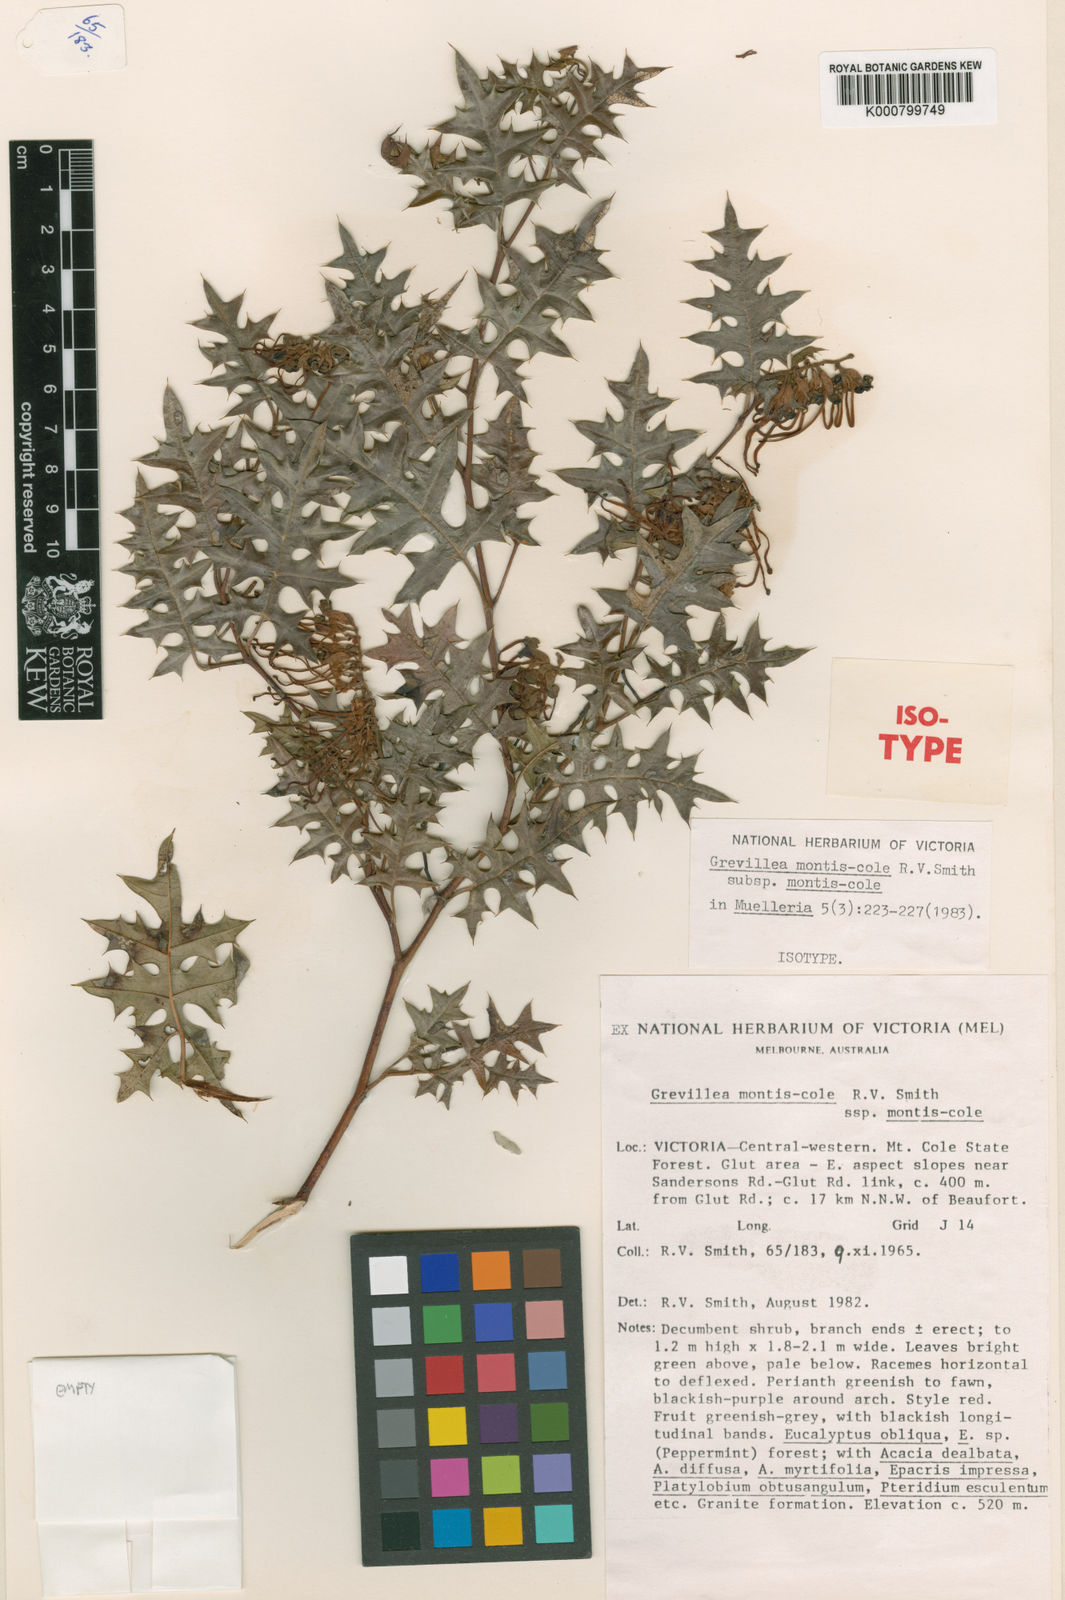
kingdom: Plantae
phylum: Tracheophyta
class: Magnoliopsida
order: Proteales
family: Proteaceae
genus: Grevillea
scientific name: Grevillea montis-cole
